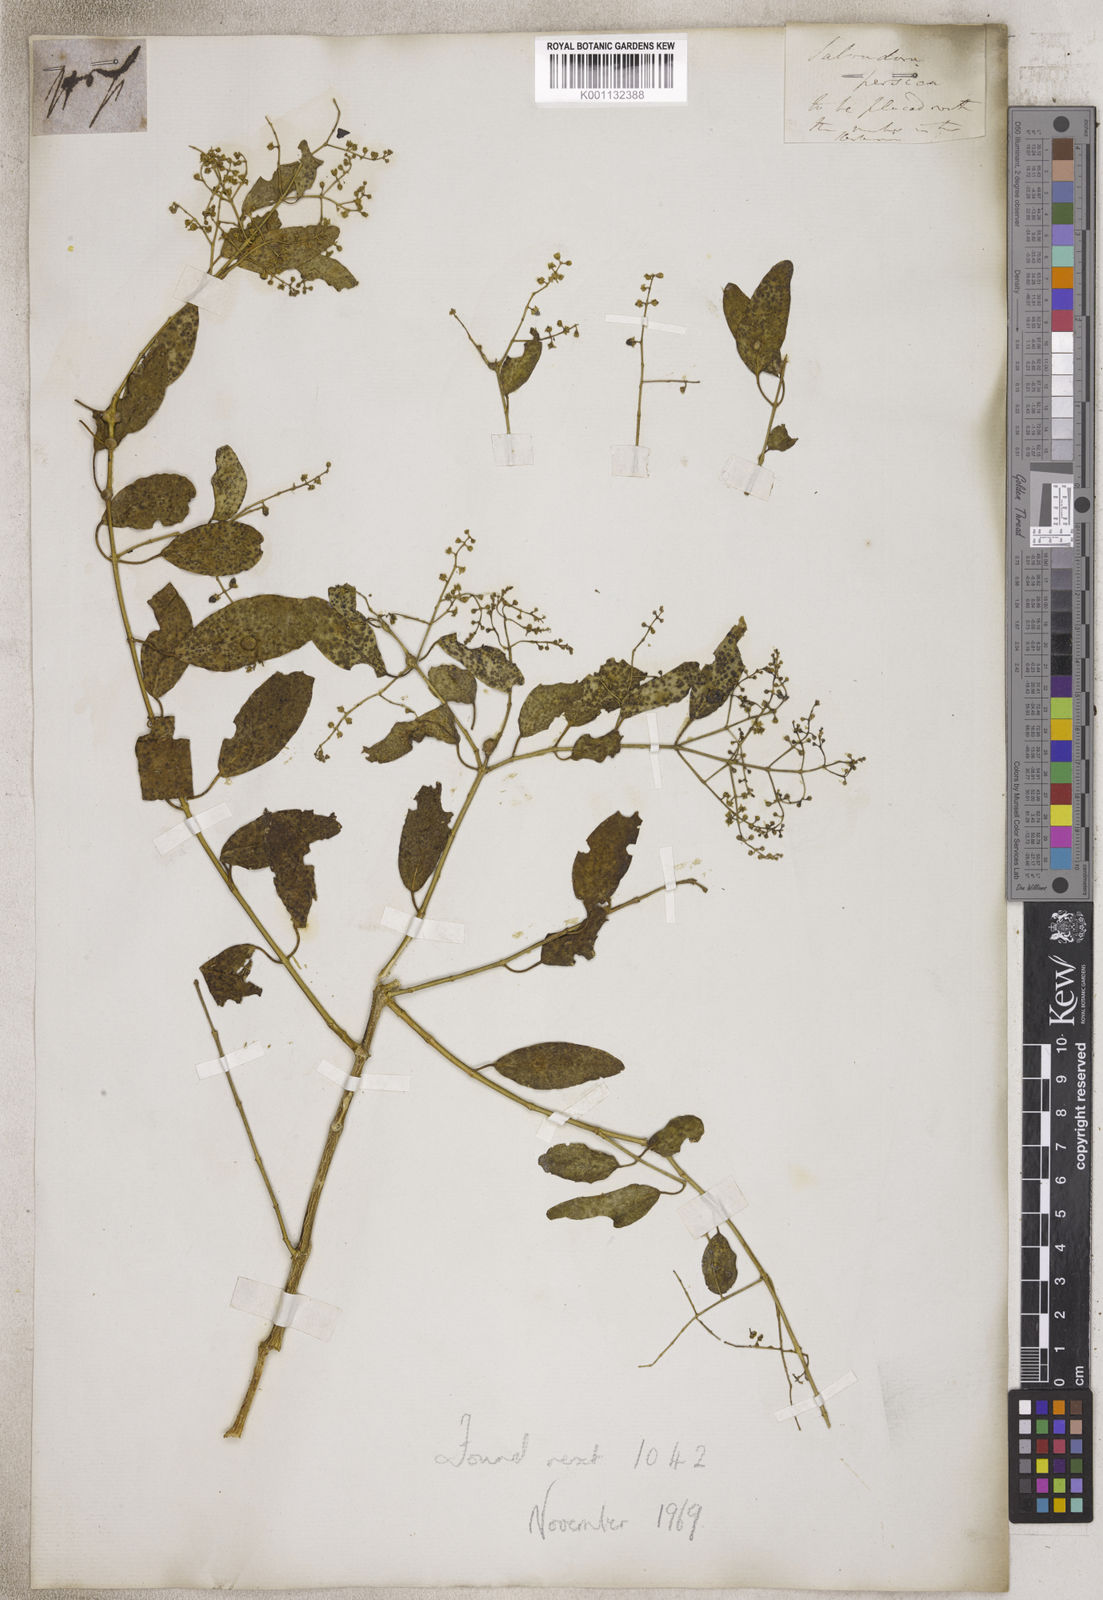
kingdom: Plantae
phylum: Tracheophyta
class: Magnoliopsida
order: Brassicales
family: Salvadoraceae
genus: Salvadora
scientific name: Salvadora
